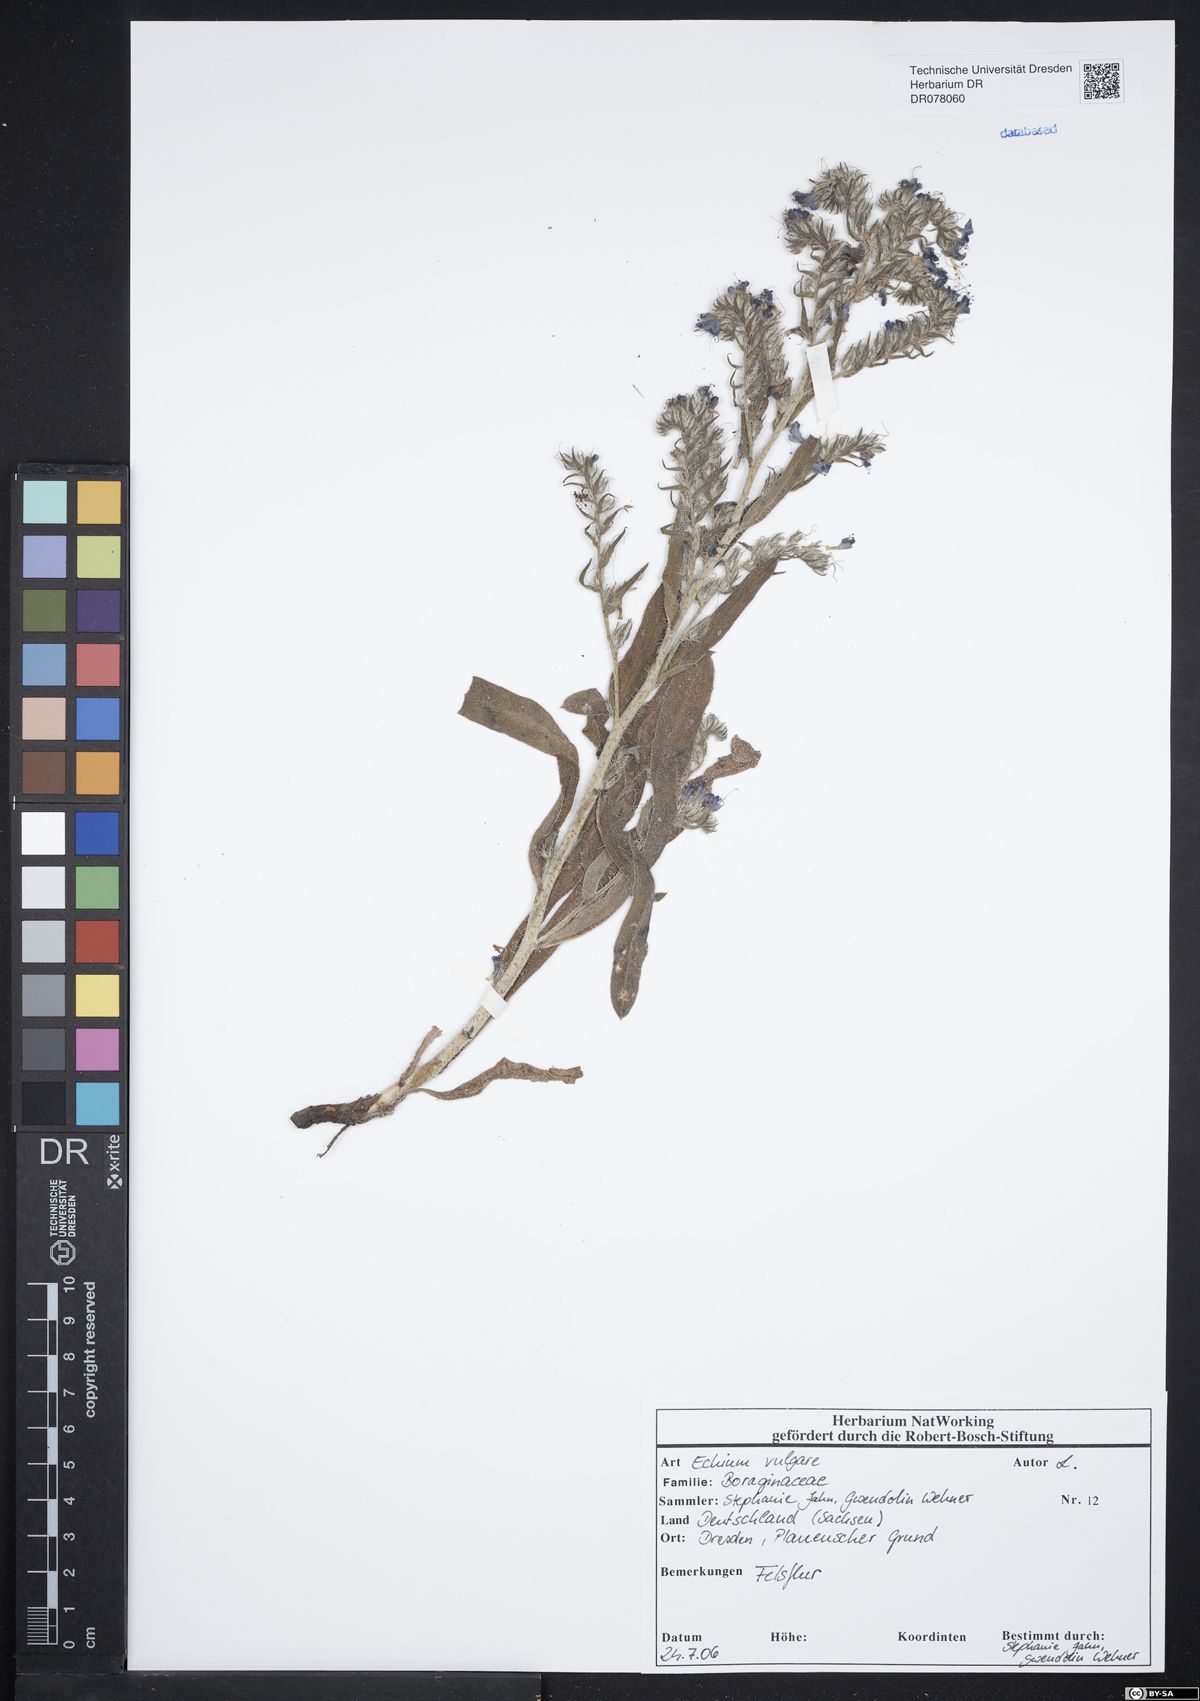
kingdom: Plantae
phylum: Tracheophyta
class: Magnoliopsida
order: Boraginales
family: Boraginaceae
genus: Echium
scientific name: Echium vulgare
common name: Common viper's bugloss
